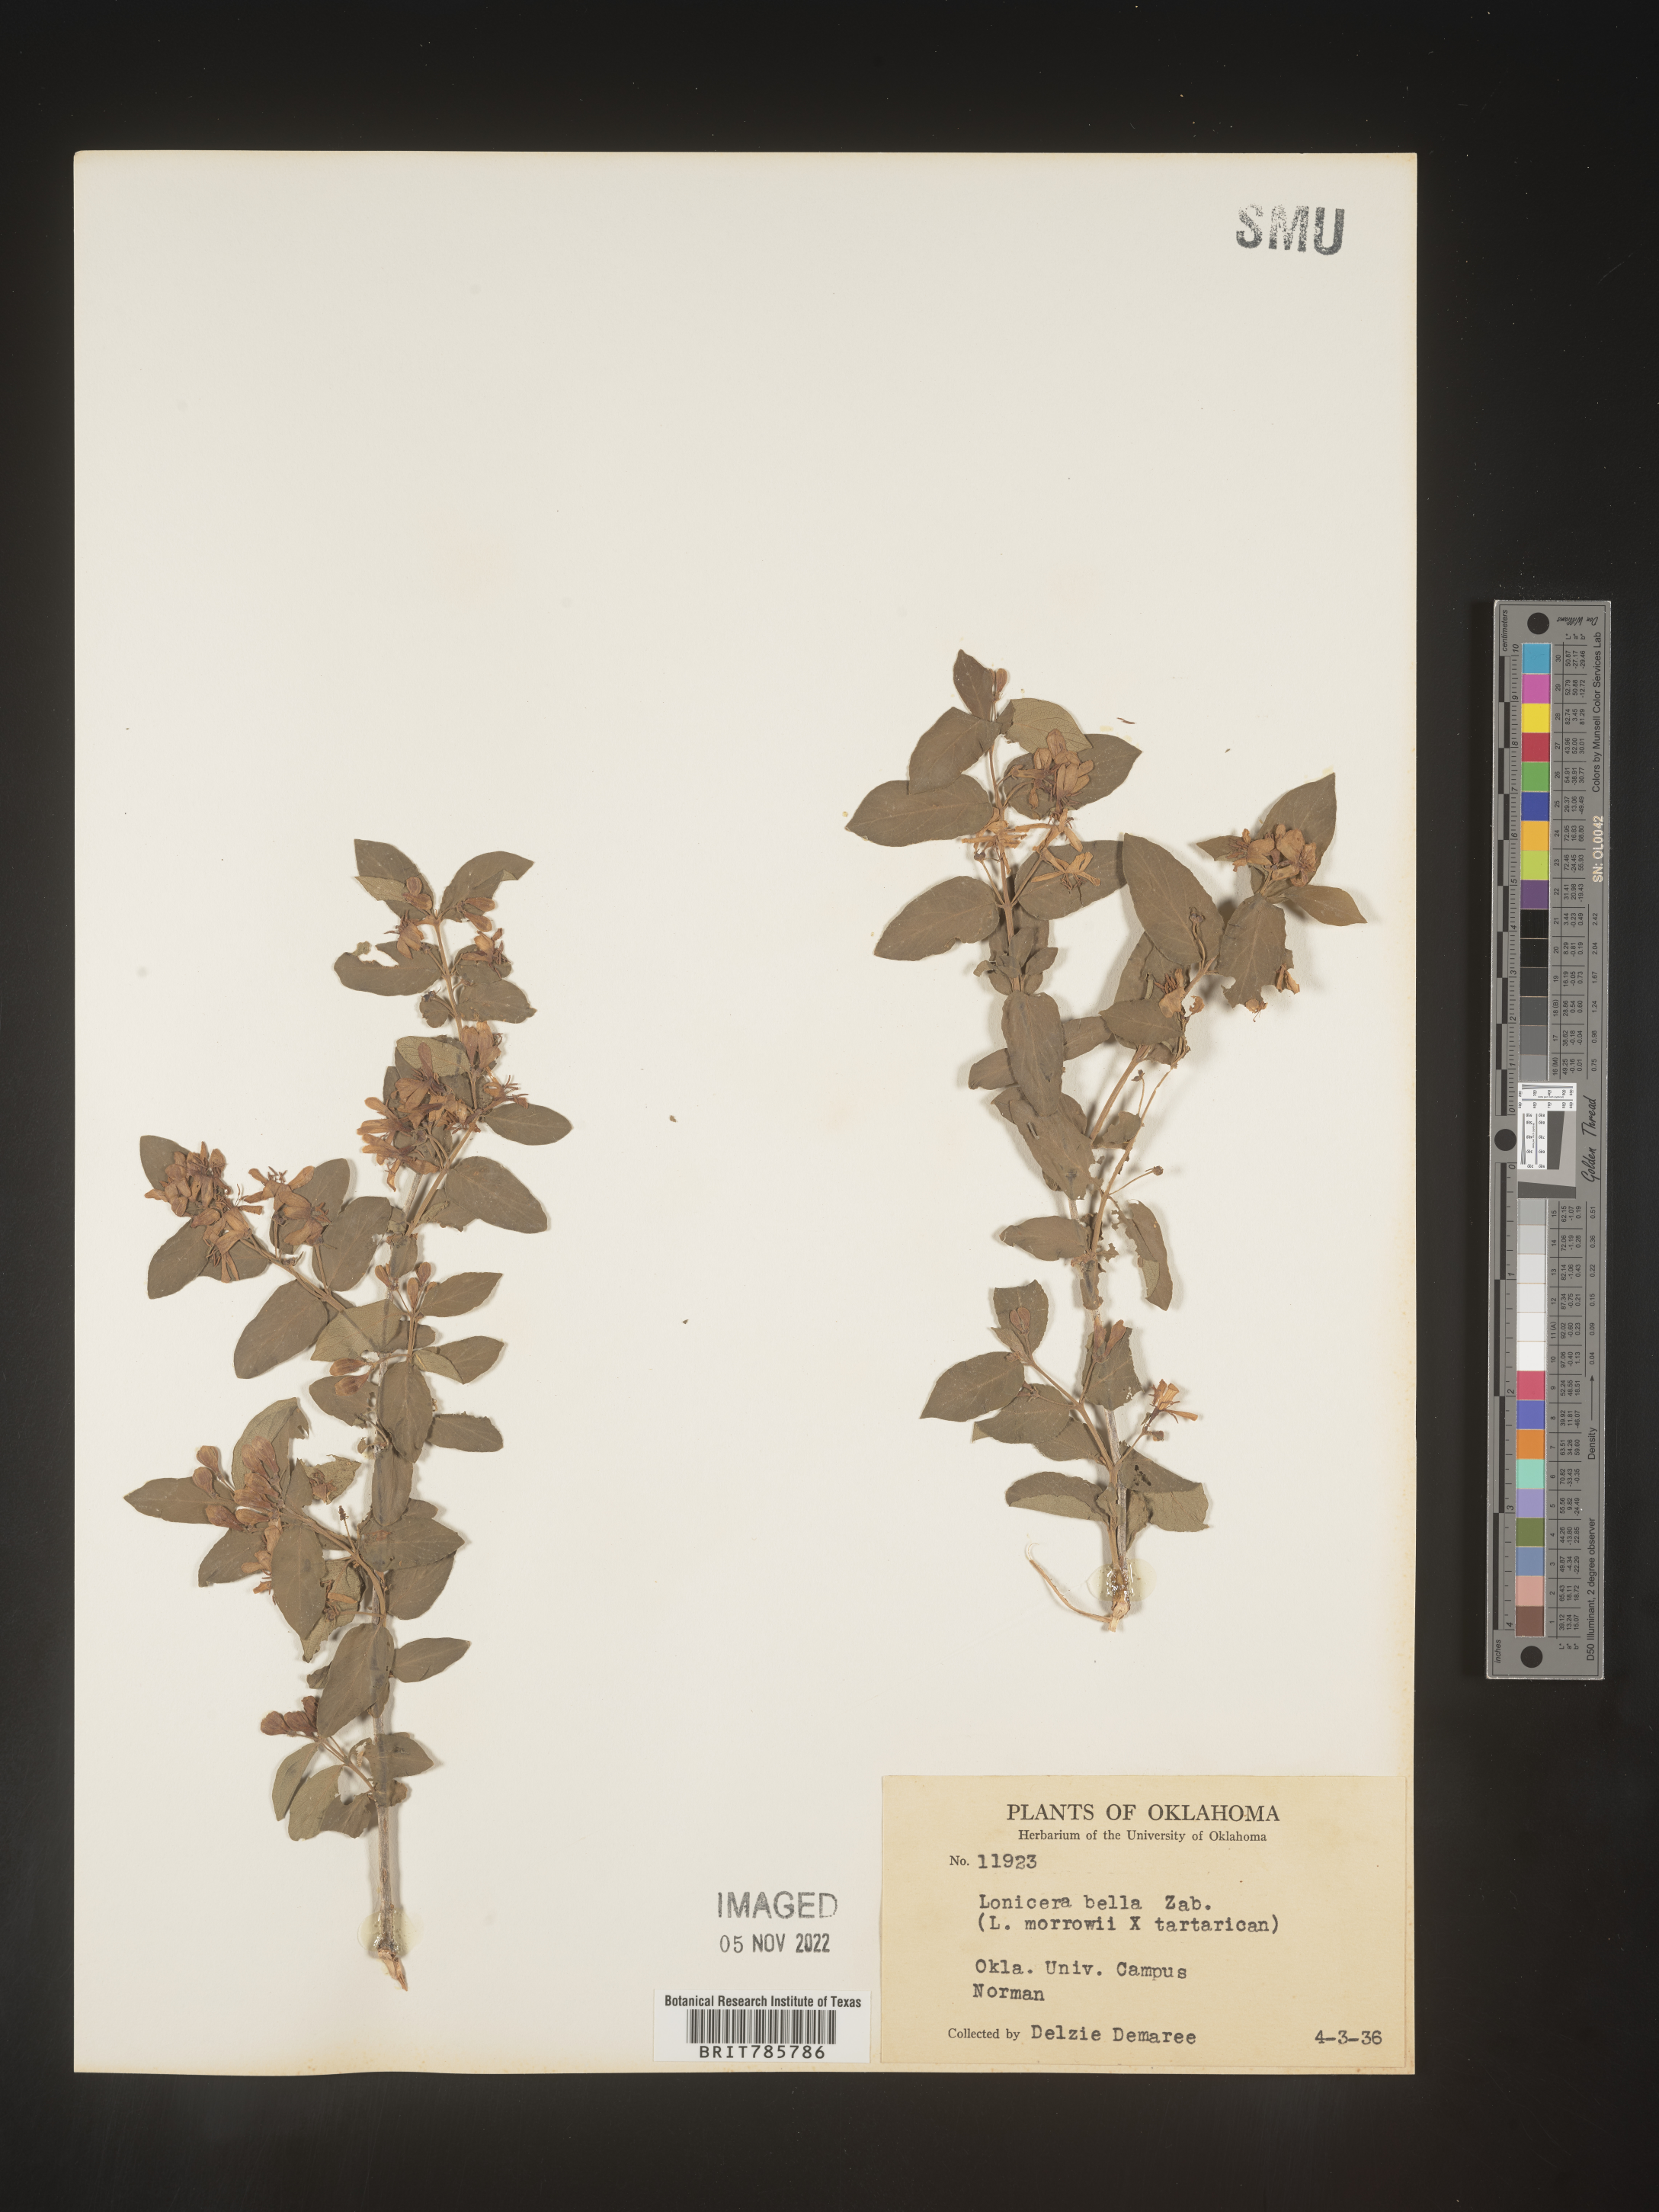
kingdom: Plantae
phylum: Tracheophyta
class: Magnoliopsida
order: Dipsacales
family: Caprifoliaceae
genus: Lonicera
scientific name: Lonicera
